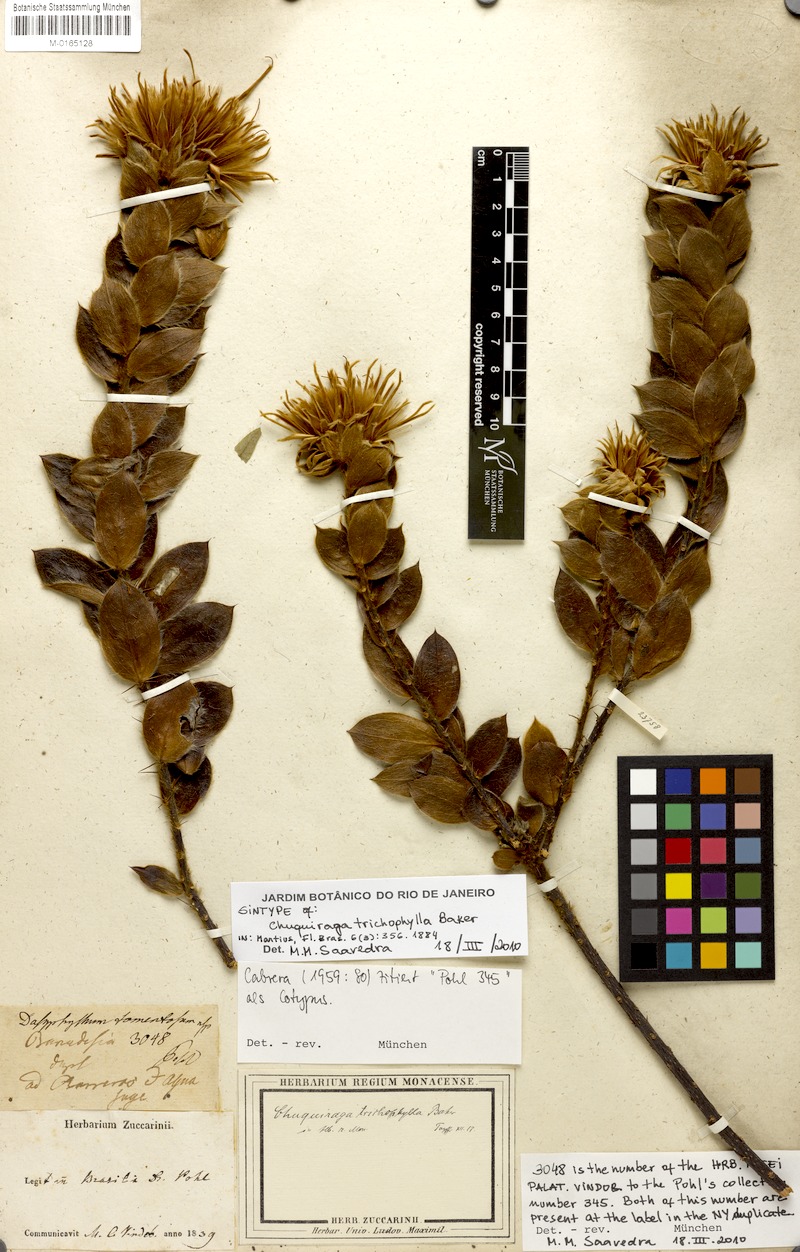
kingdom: Plantae
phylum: Tracheophyta
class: Magnoliopsida
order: Asterales
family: Asteraceae
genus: Dasyphyllum
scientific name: Dasyphyllum trichophyllum
